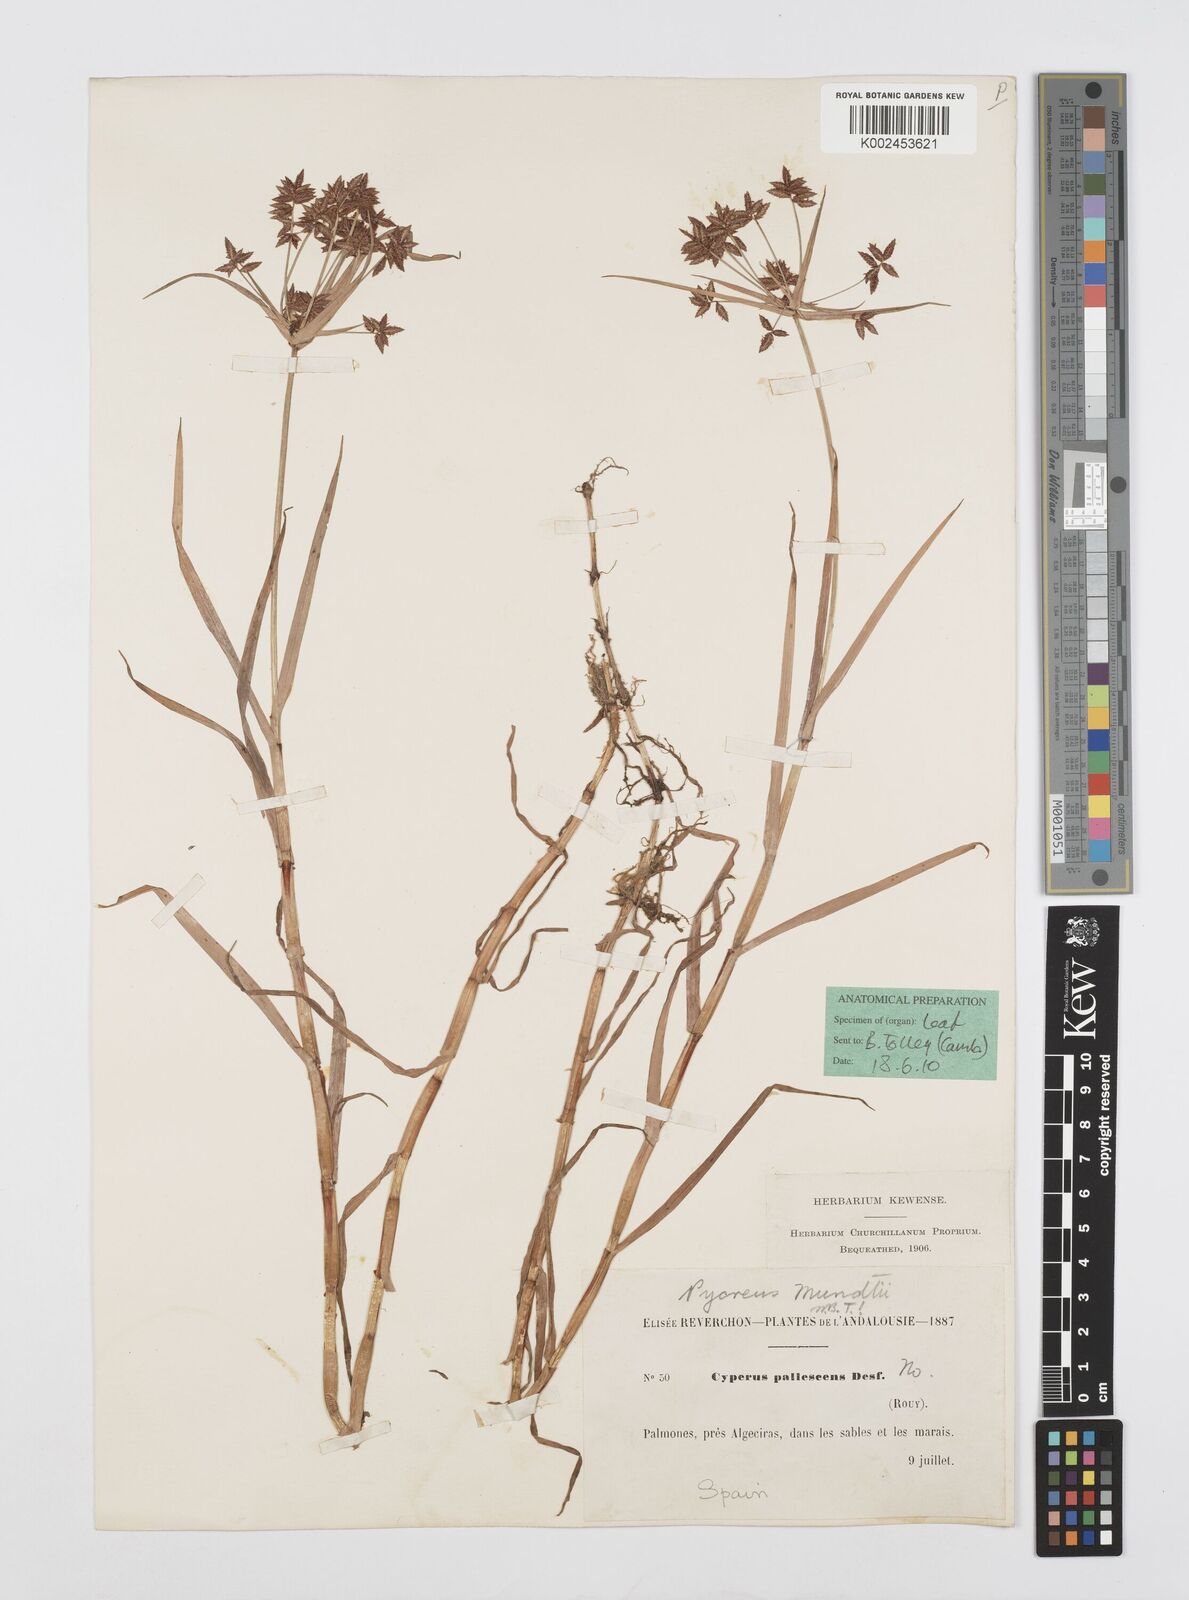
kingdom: Plantae
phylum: Tracheophyta
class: Liliopsida
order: Poales
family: Cyperaceae
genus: Cyperus
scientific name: Cyperus mundii
